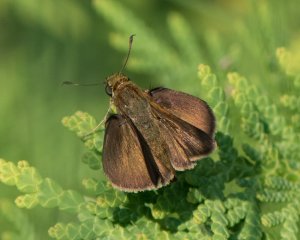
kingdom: Animalia
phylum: Arthropoda
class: Insecta
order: Lepidoptera
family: Hesperiidae
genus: Euphyes
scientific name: Euphyes vestris
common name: Dun Skipper
